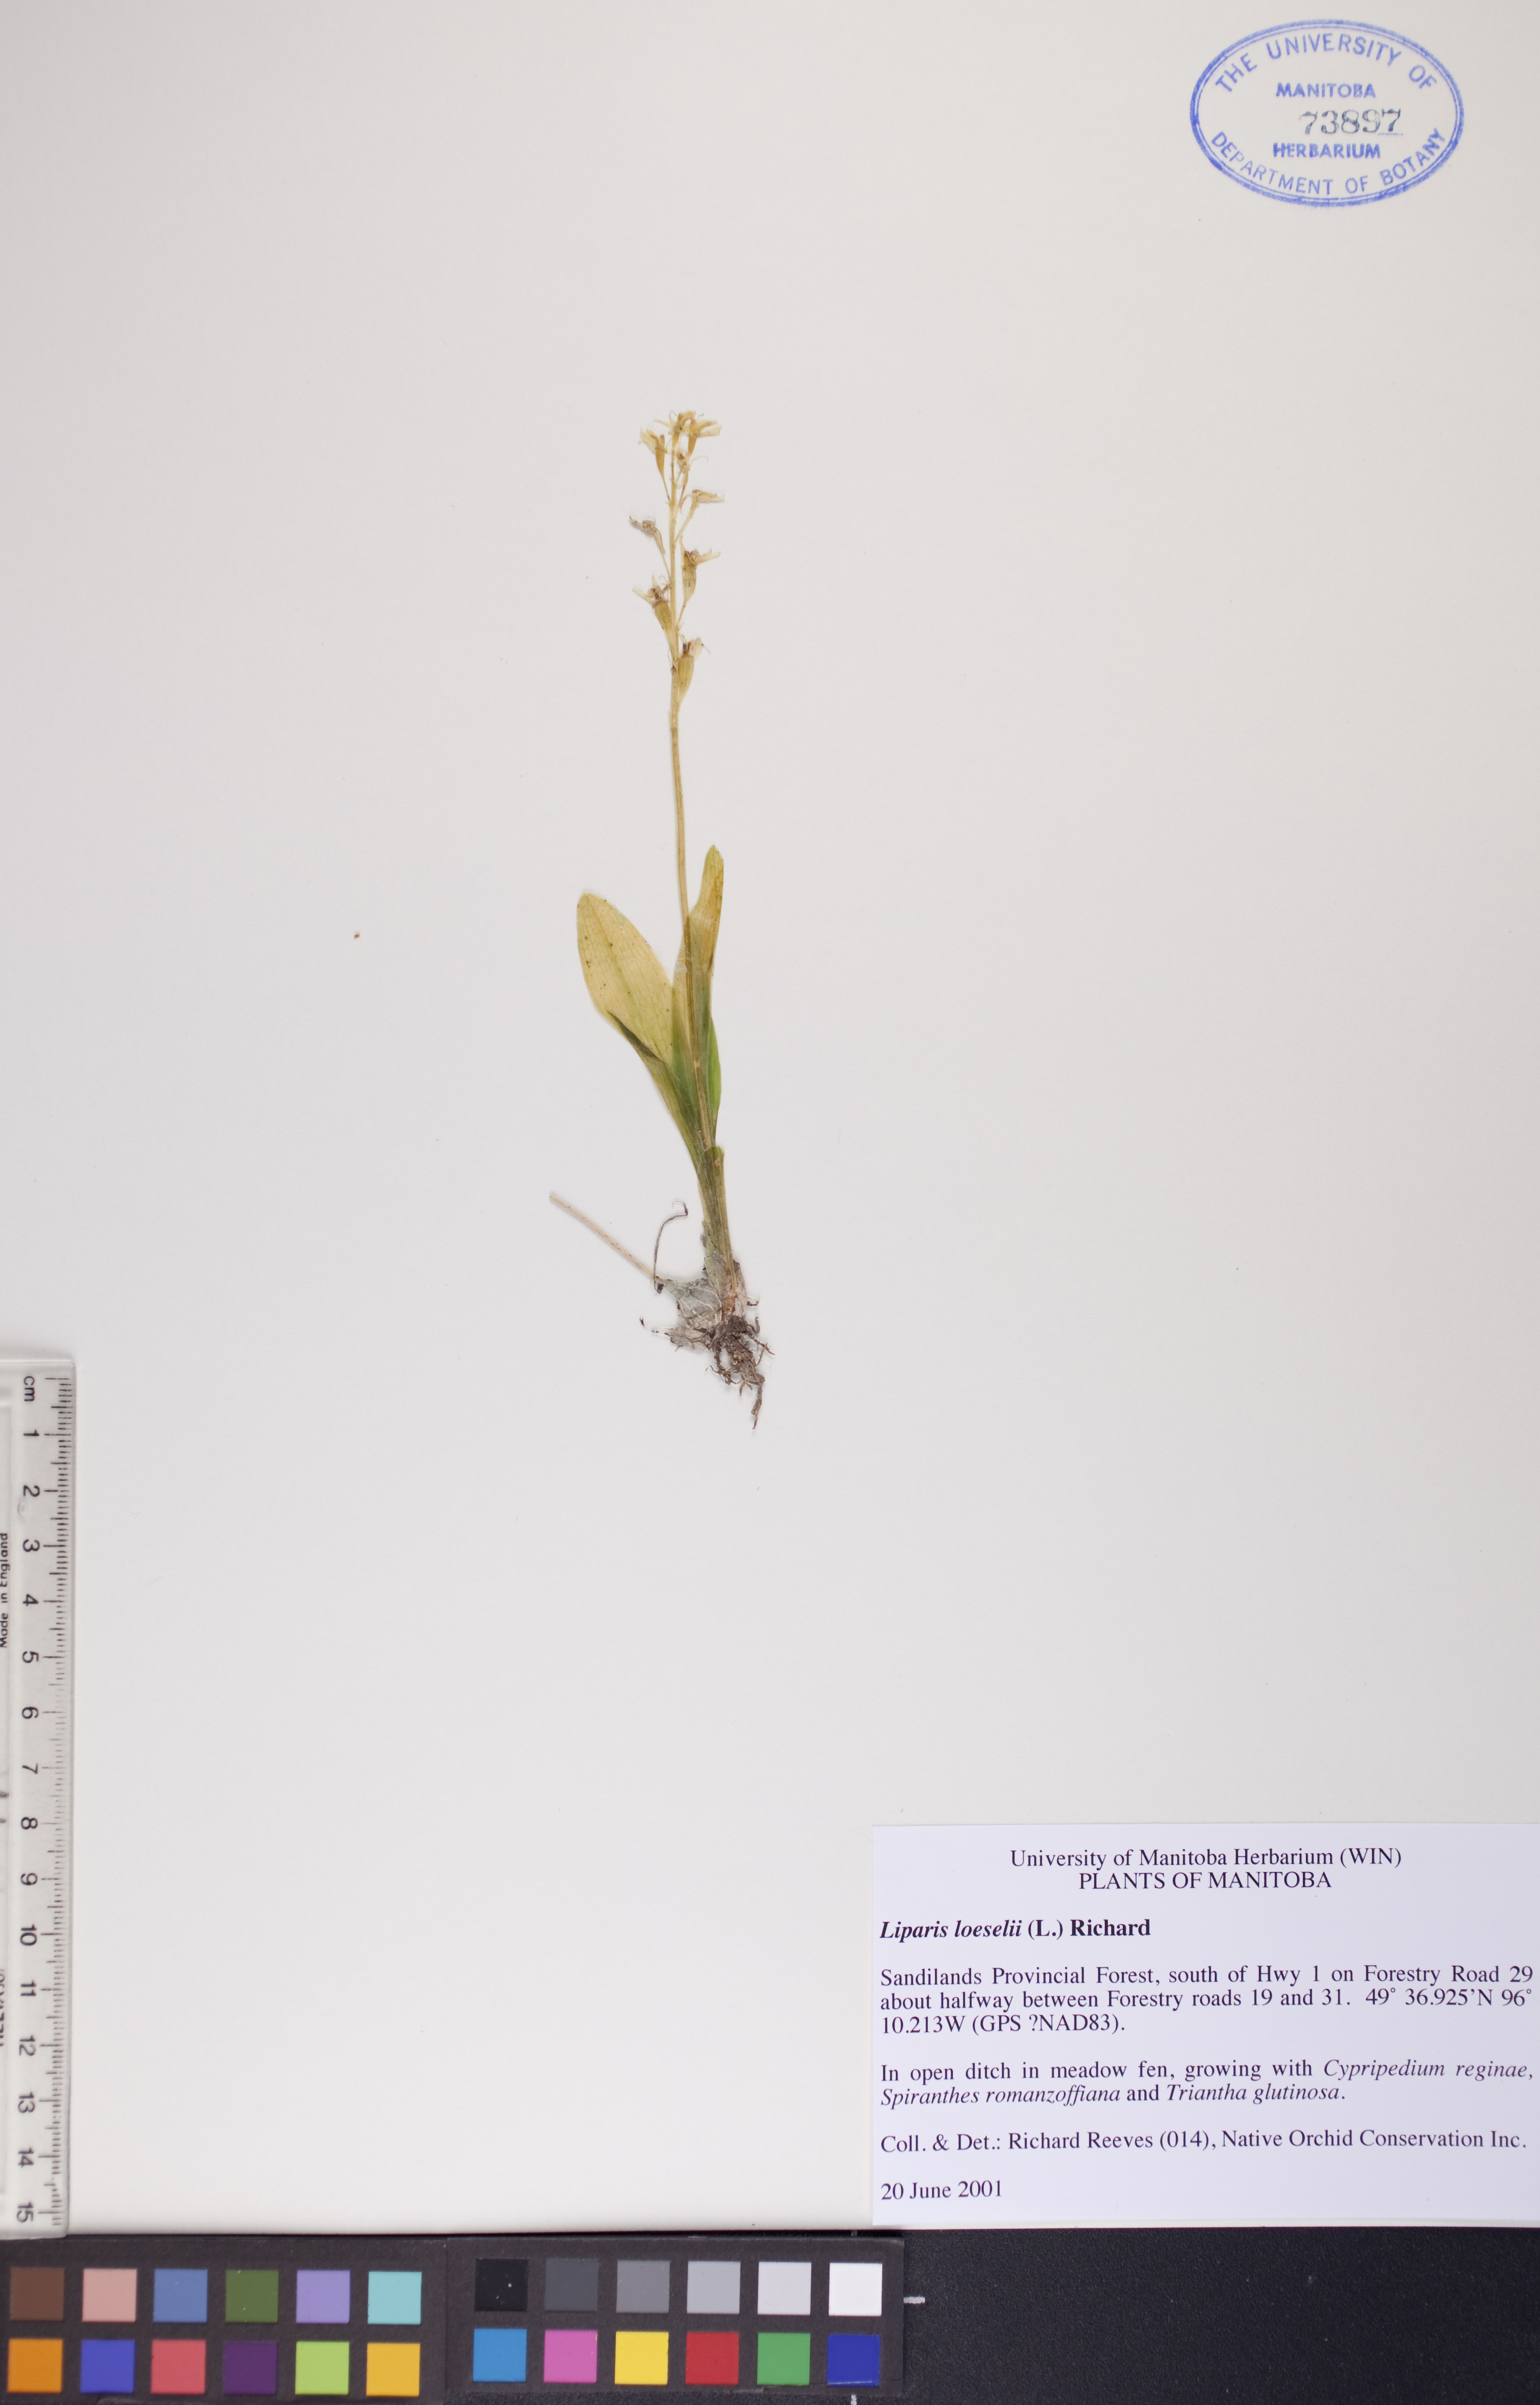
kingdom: Animalia
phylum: Arthropoda
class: Insecta
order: Coleoptera
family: Curculionidae
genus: Liparis
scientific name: Liparis loeselii
